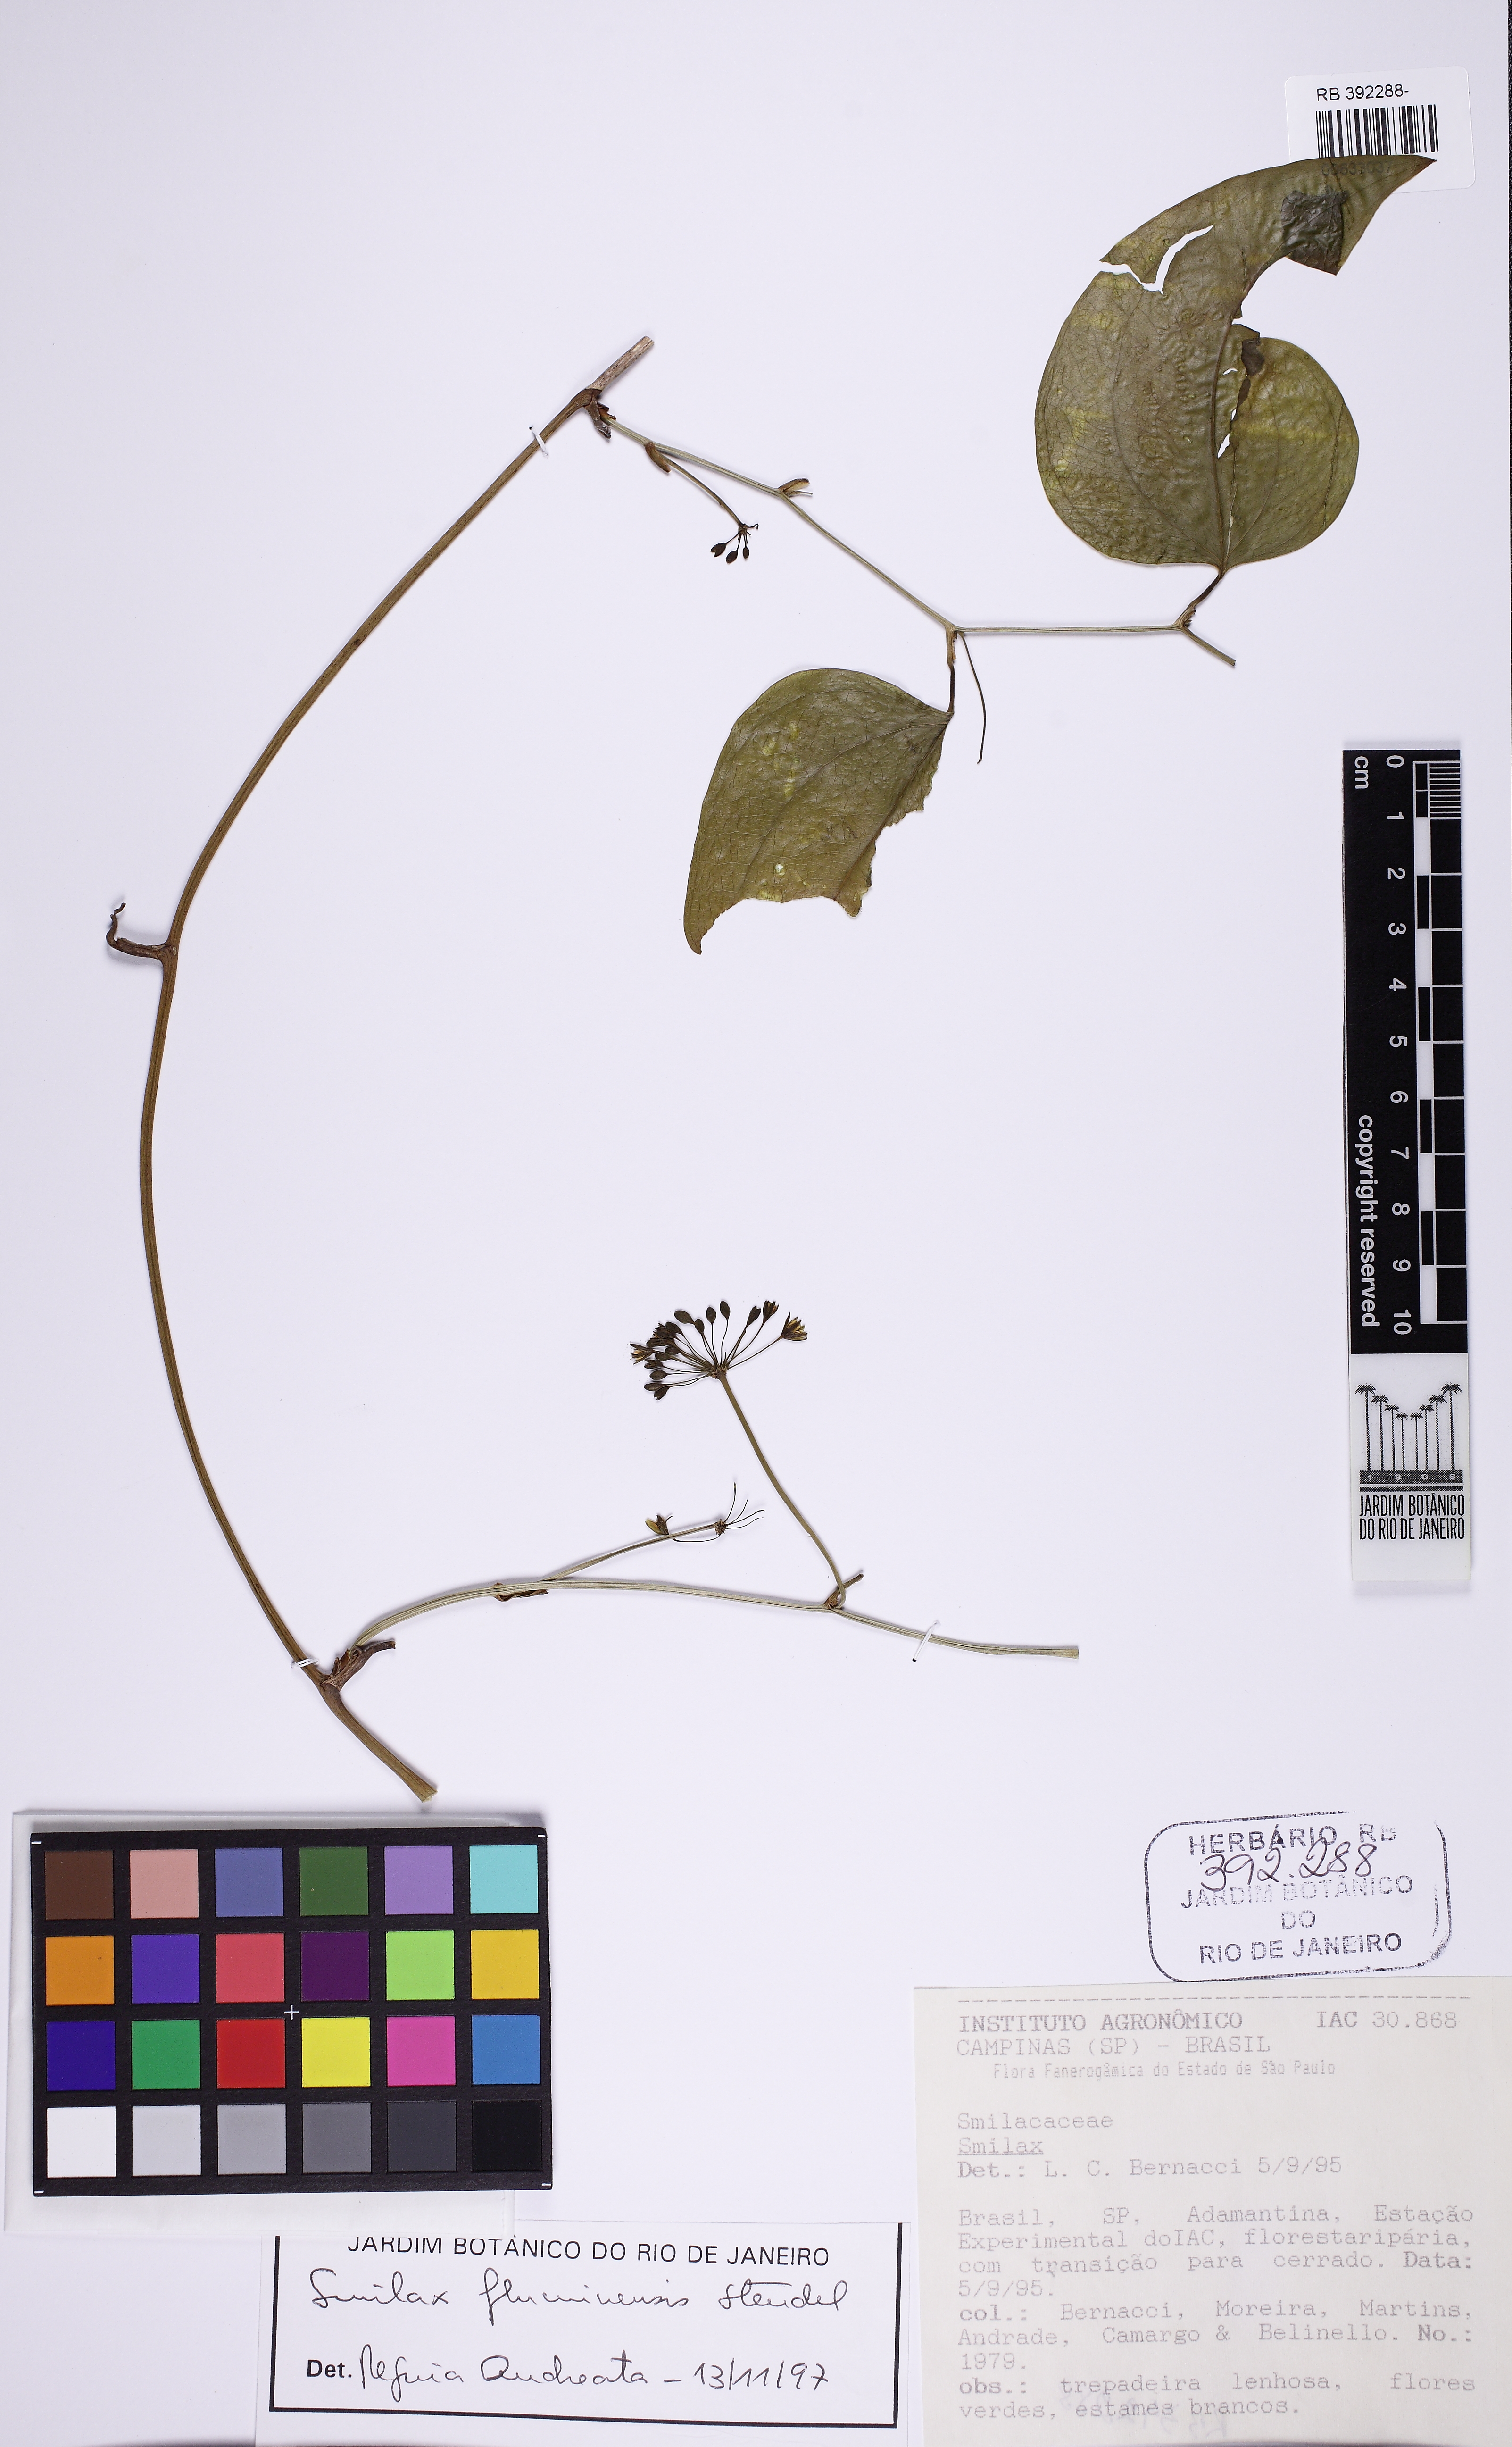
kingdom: Plantae
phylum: Tracheophyta
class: Liliopsida
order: Liliales
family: Smilacaceae
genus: Smilax
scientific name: Smilax fluminensis
